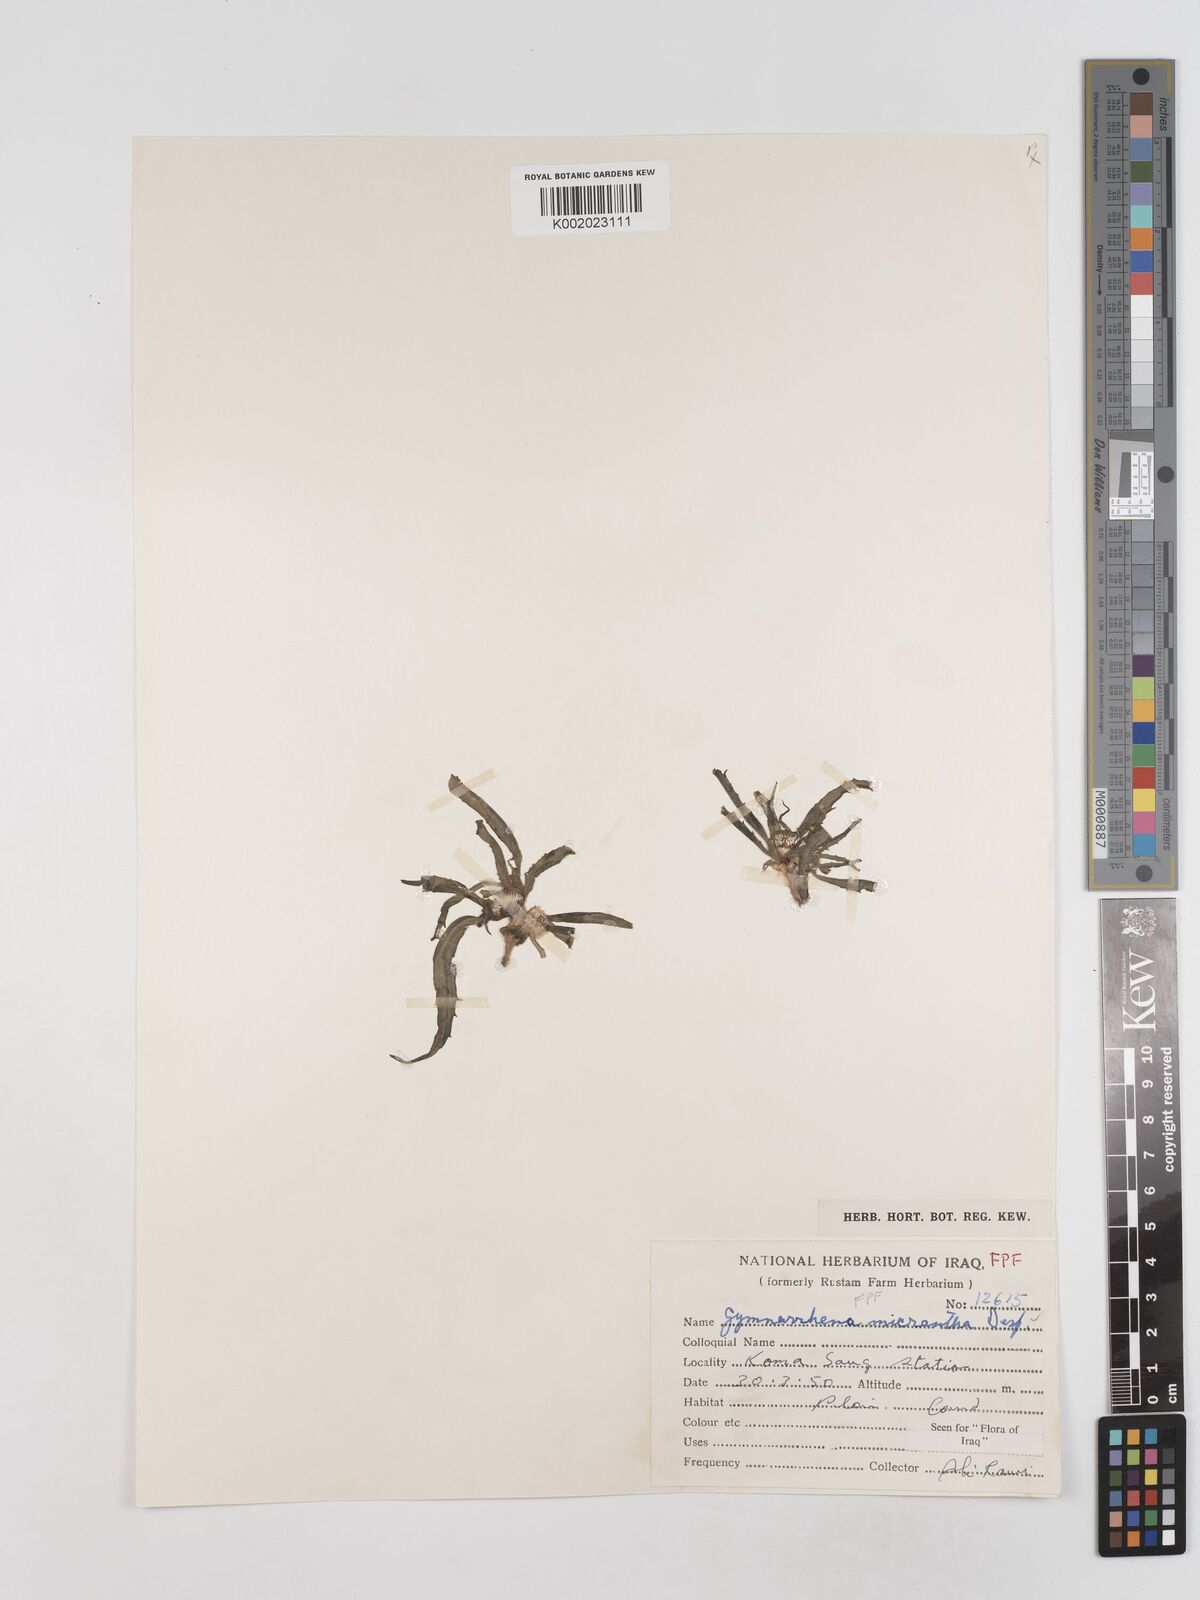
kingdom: Plantae
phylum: Tracheophyta
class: Magnoliopsida
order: Asterales
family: Asteraceae
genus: Gymnarrhena
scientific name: Gymnarrhena micrantha
